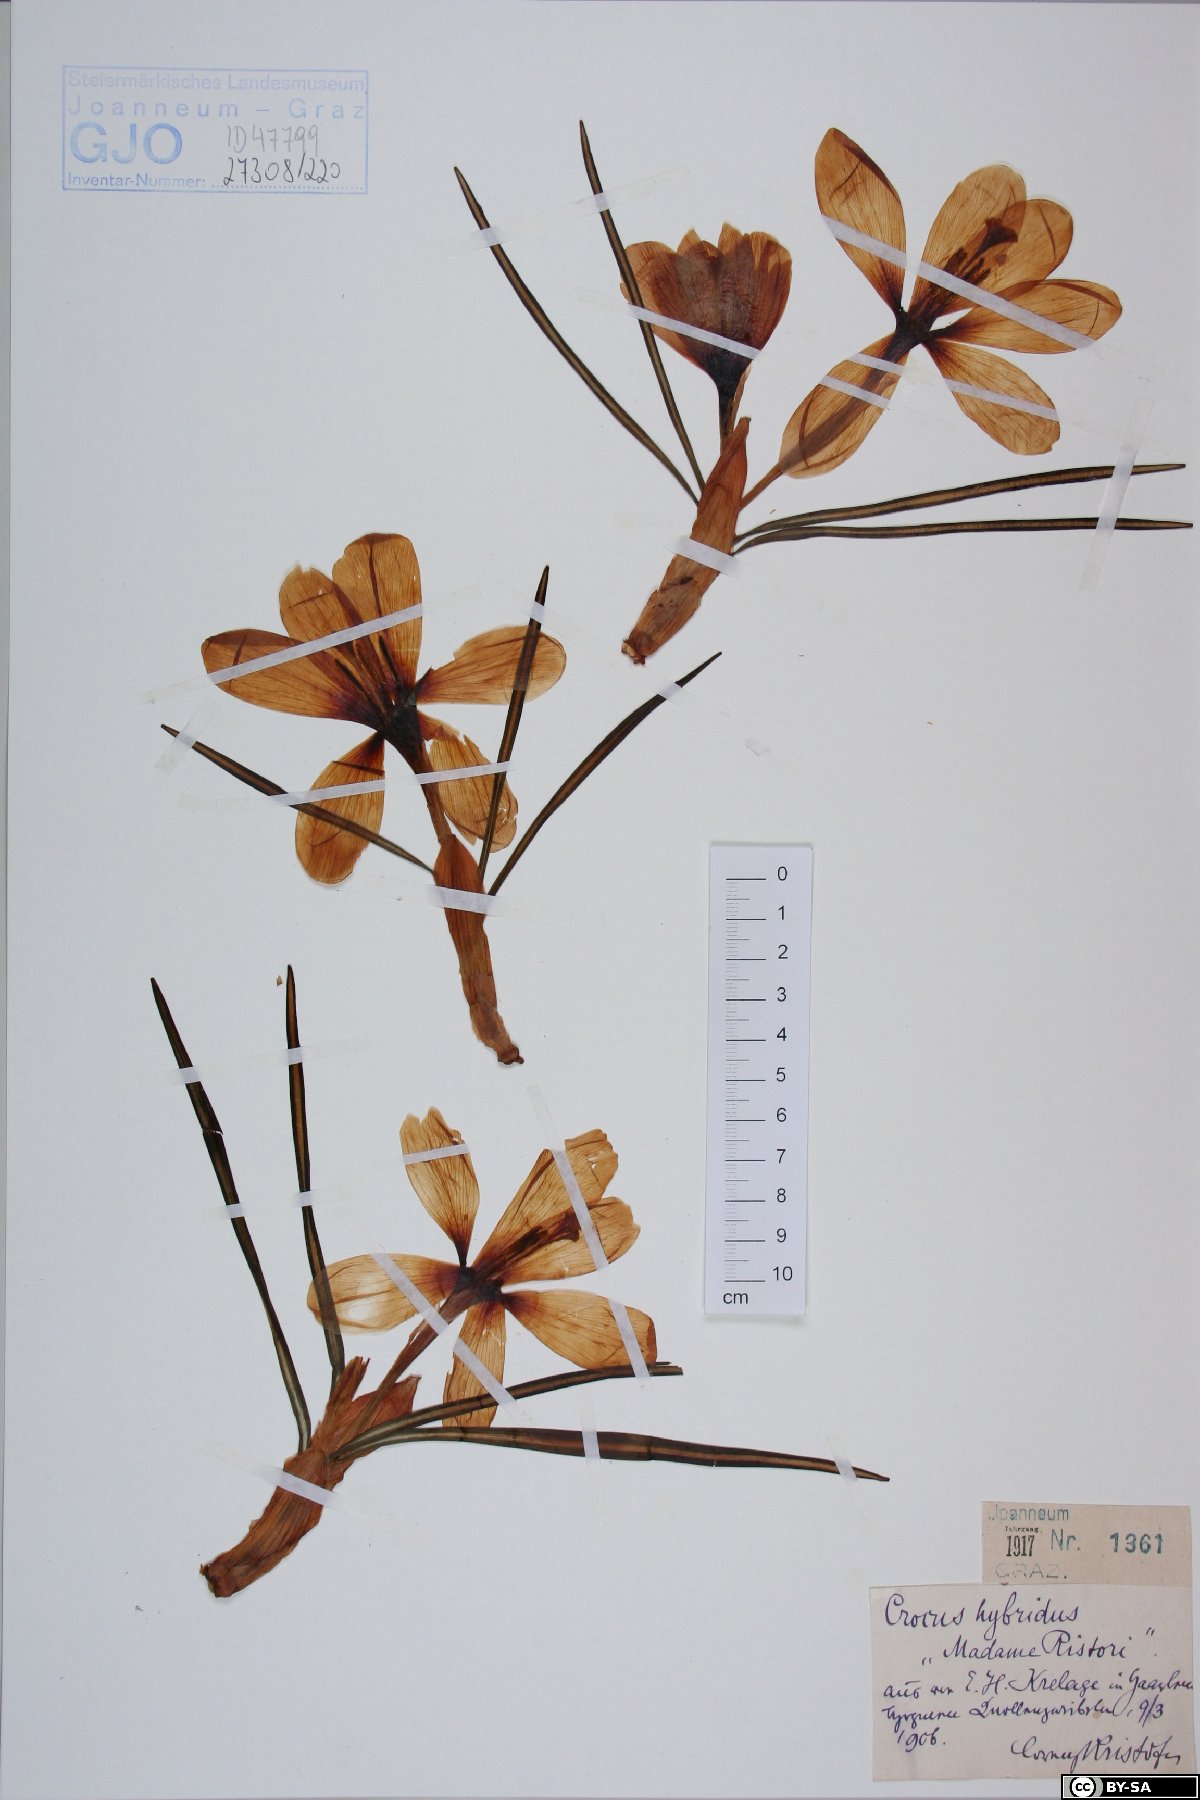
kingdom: Plantae
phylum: Tracheophyta
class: Liliopsida
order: Asparagales
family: Iridaceae
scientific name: Iridaceae
